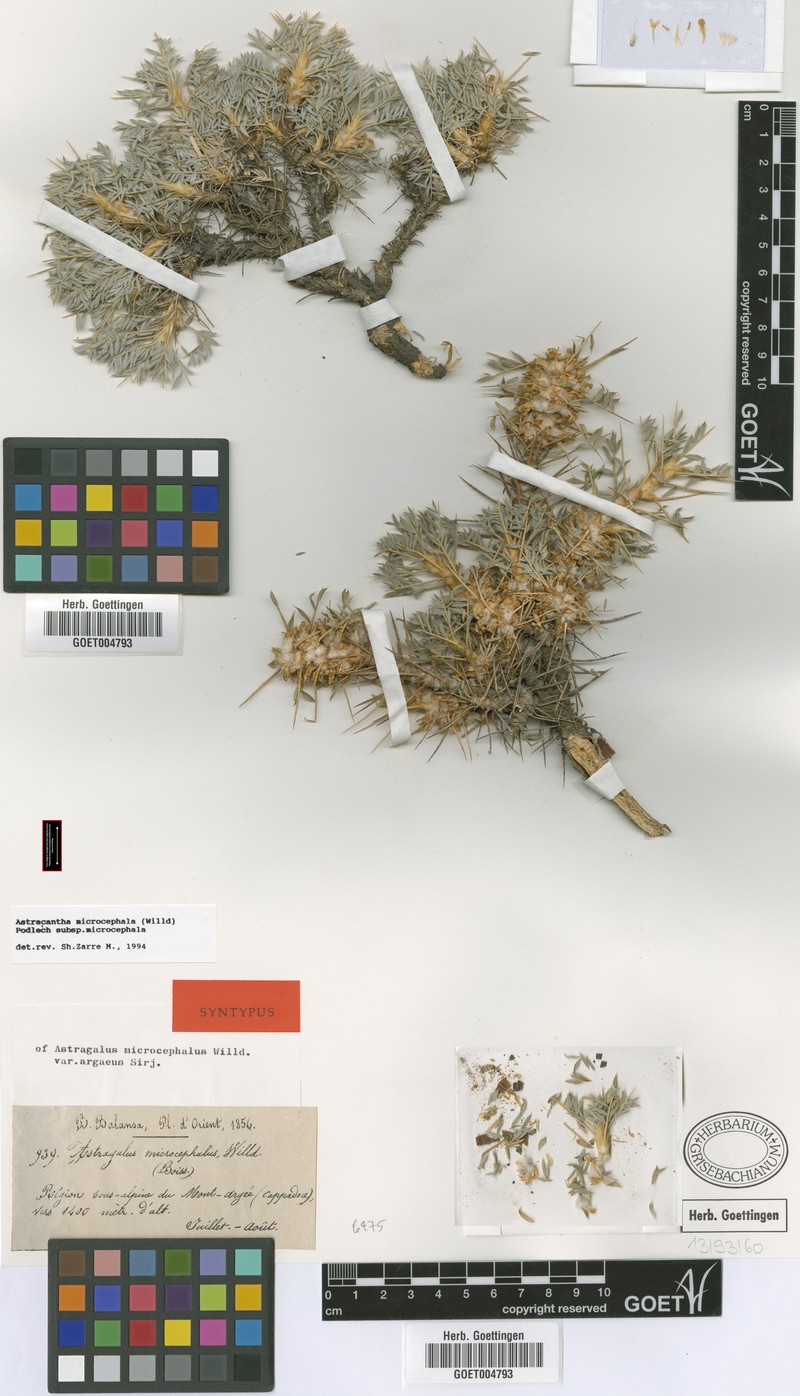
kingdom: Plantae
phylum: Tracheophyta
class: Magnoliopsida
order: Fabales
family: Fabaceae
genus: Astragalus
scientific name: Astragalus microcephalus
